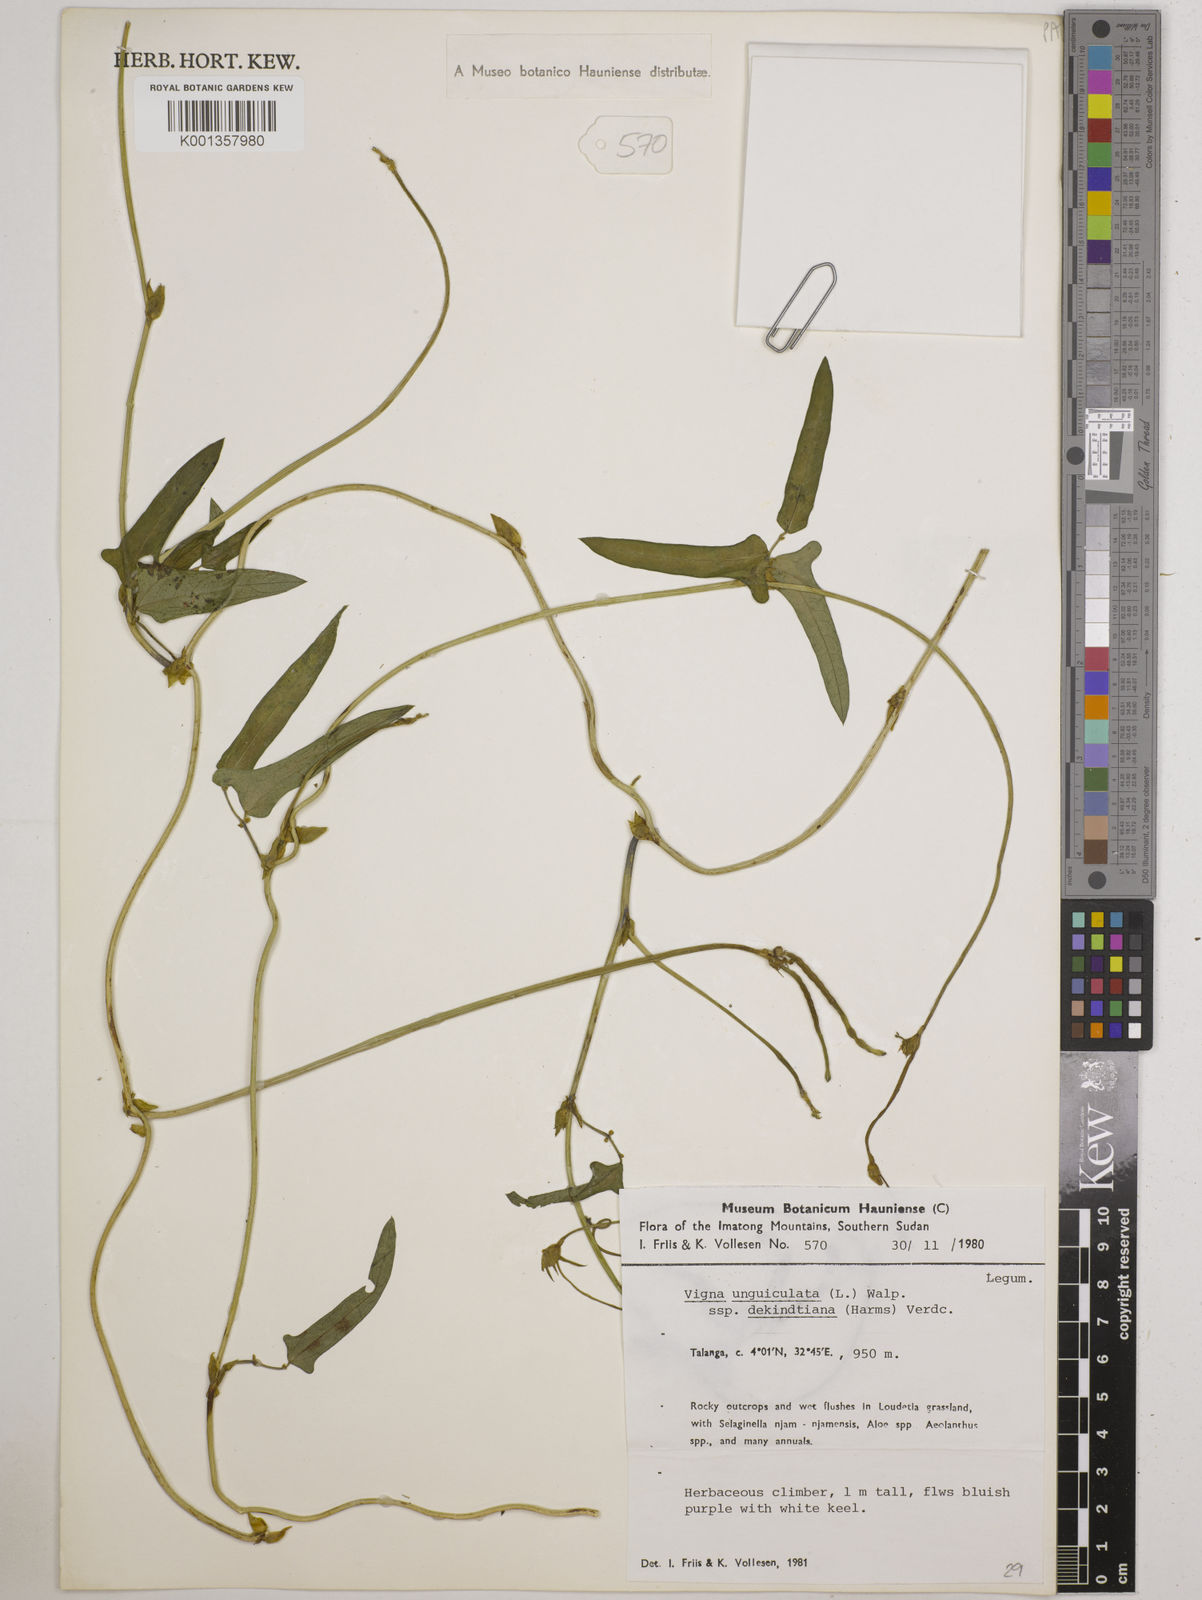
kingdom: Plantae
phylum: Tracheophyta
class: Magnoliopsida
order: Fabales
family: Fabaceae
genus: Vigna
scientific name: Vigna
